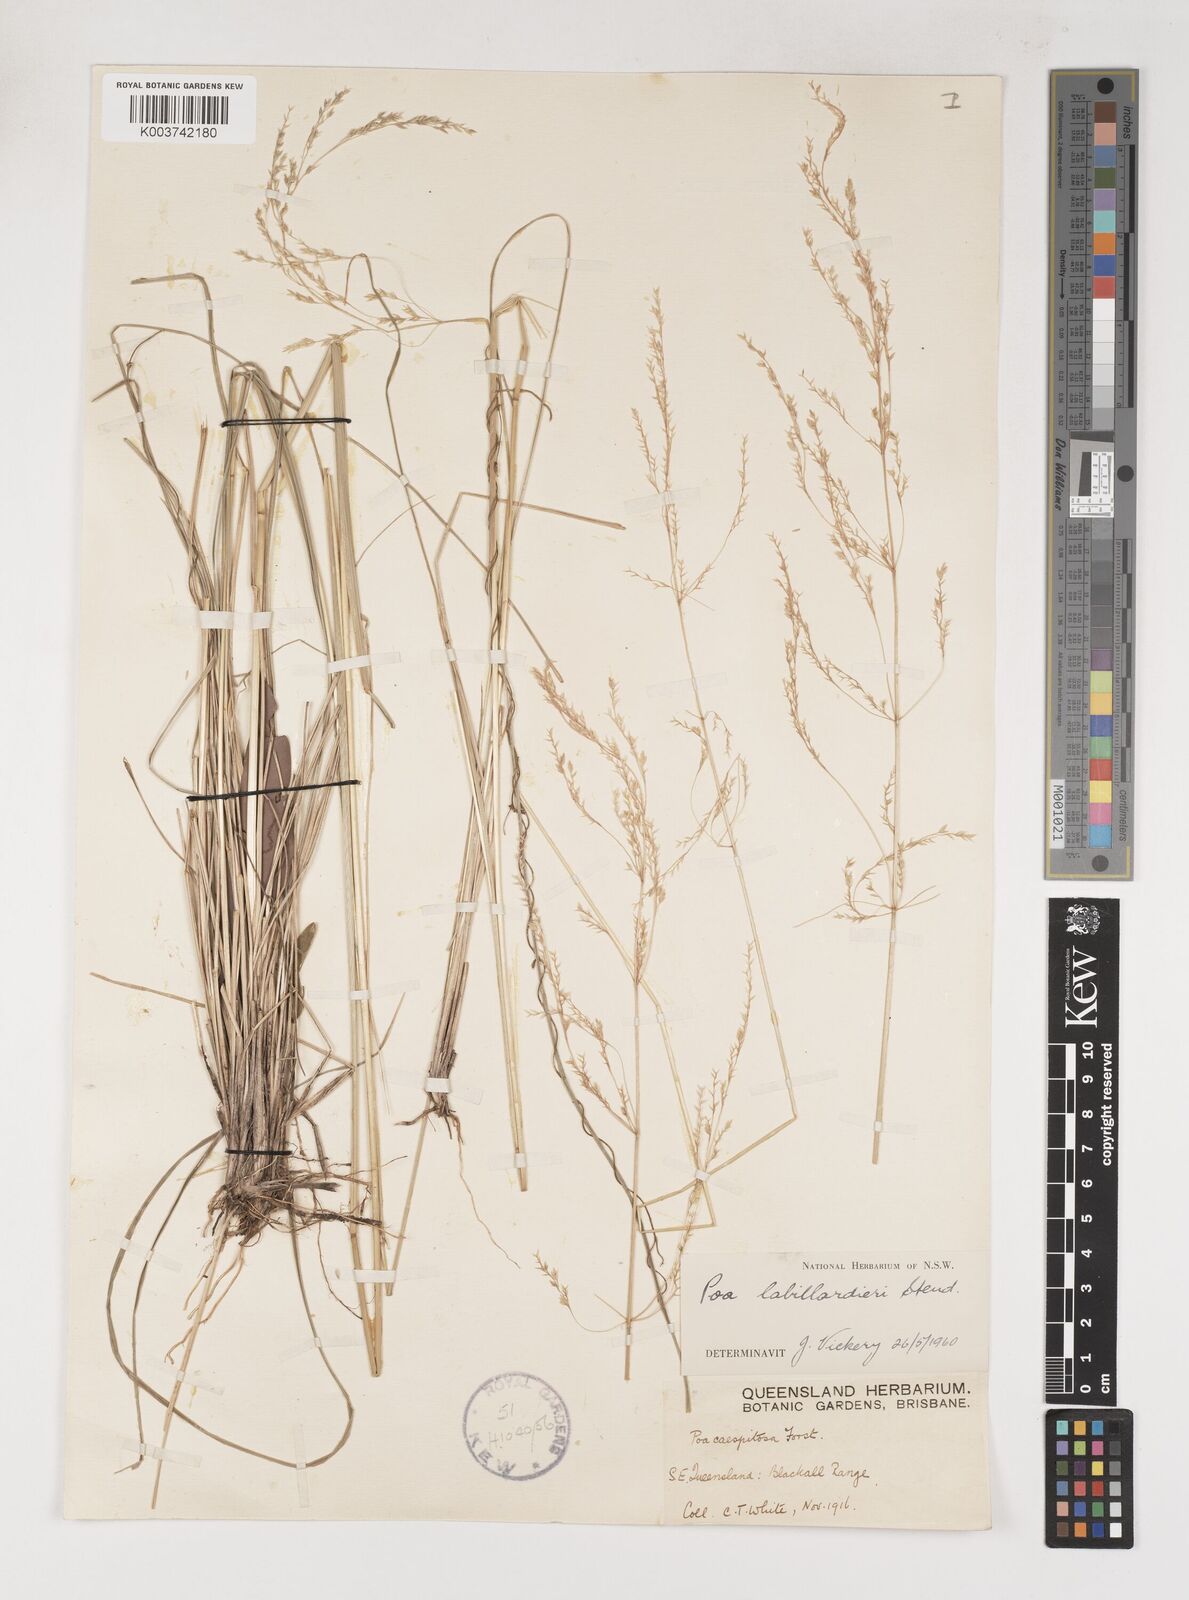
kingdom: Plantae
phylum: Tracheophyta
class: Liliopsida
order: Poales
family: Poaceae
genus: Poa
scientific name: Poa labillardierei
